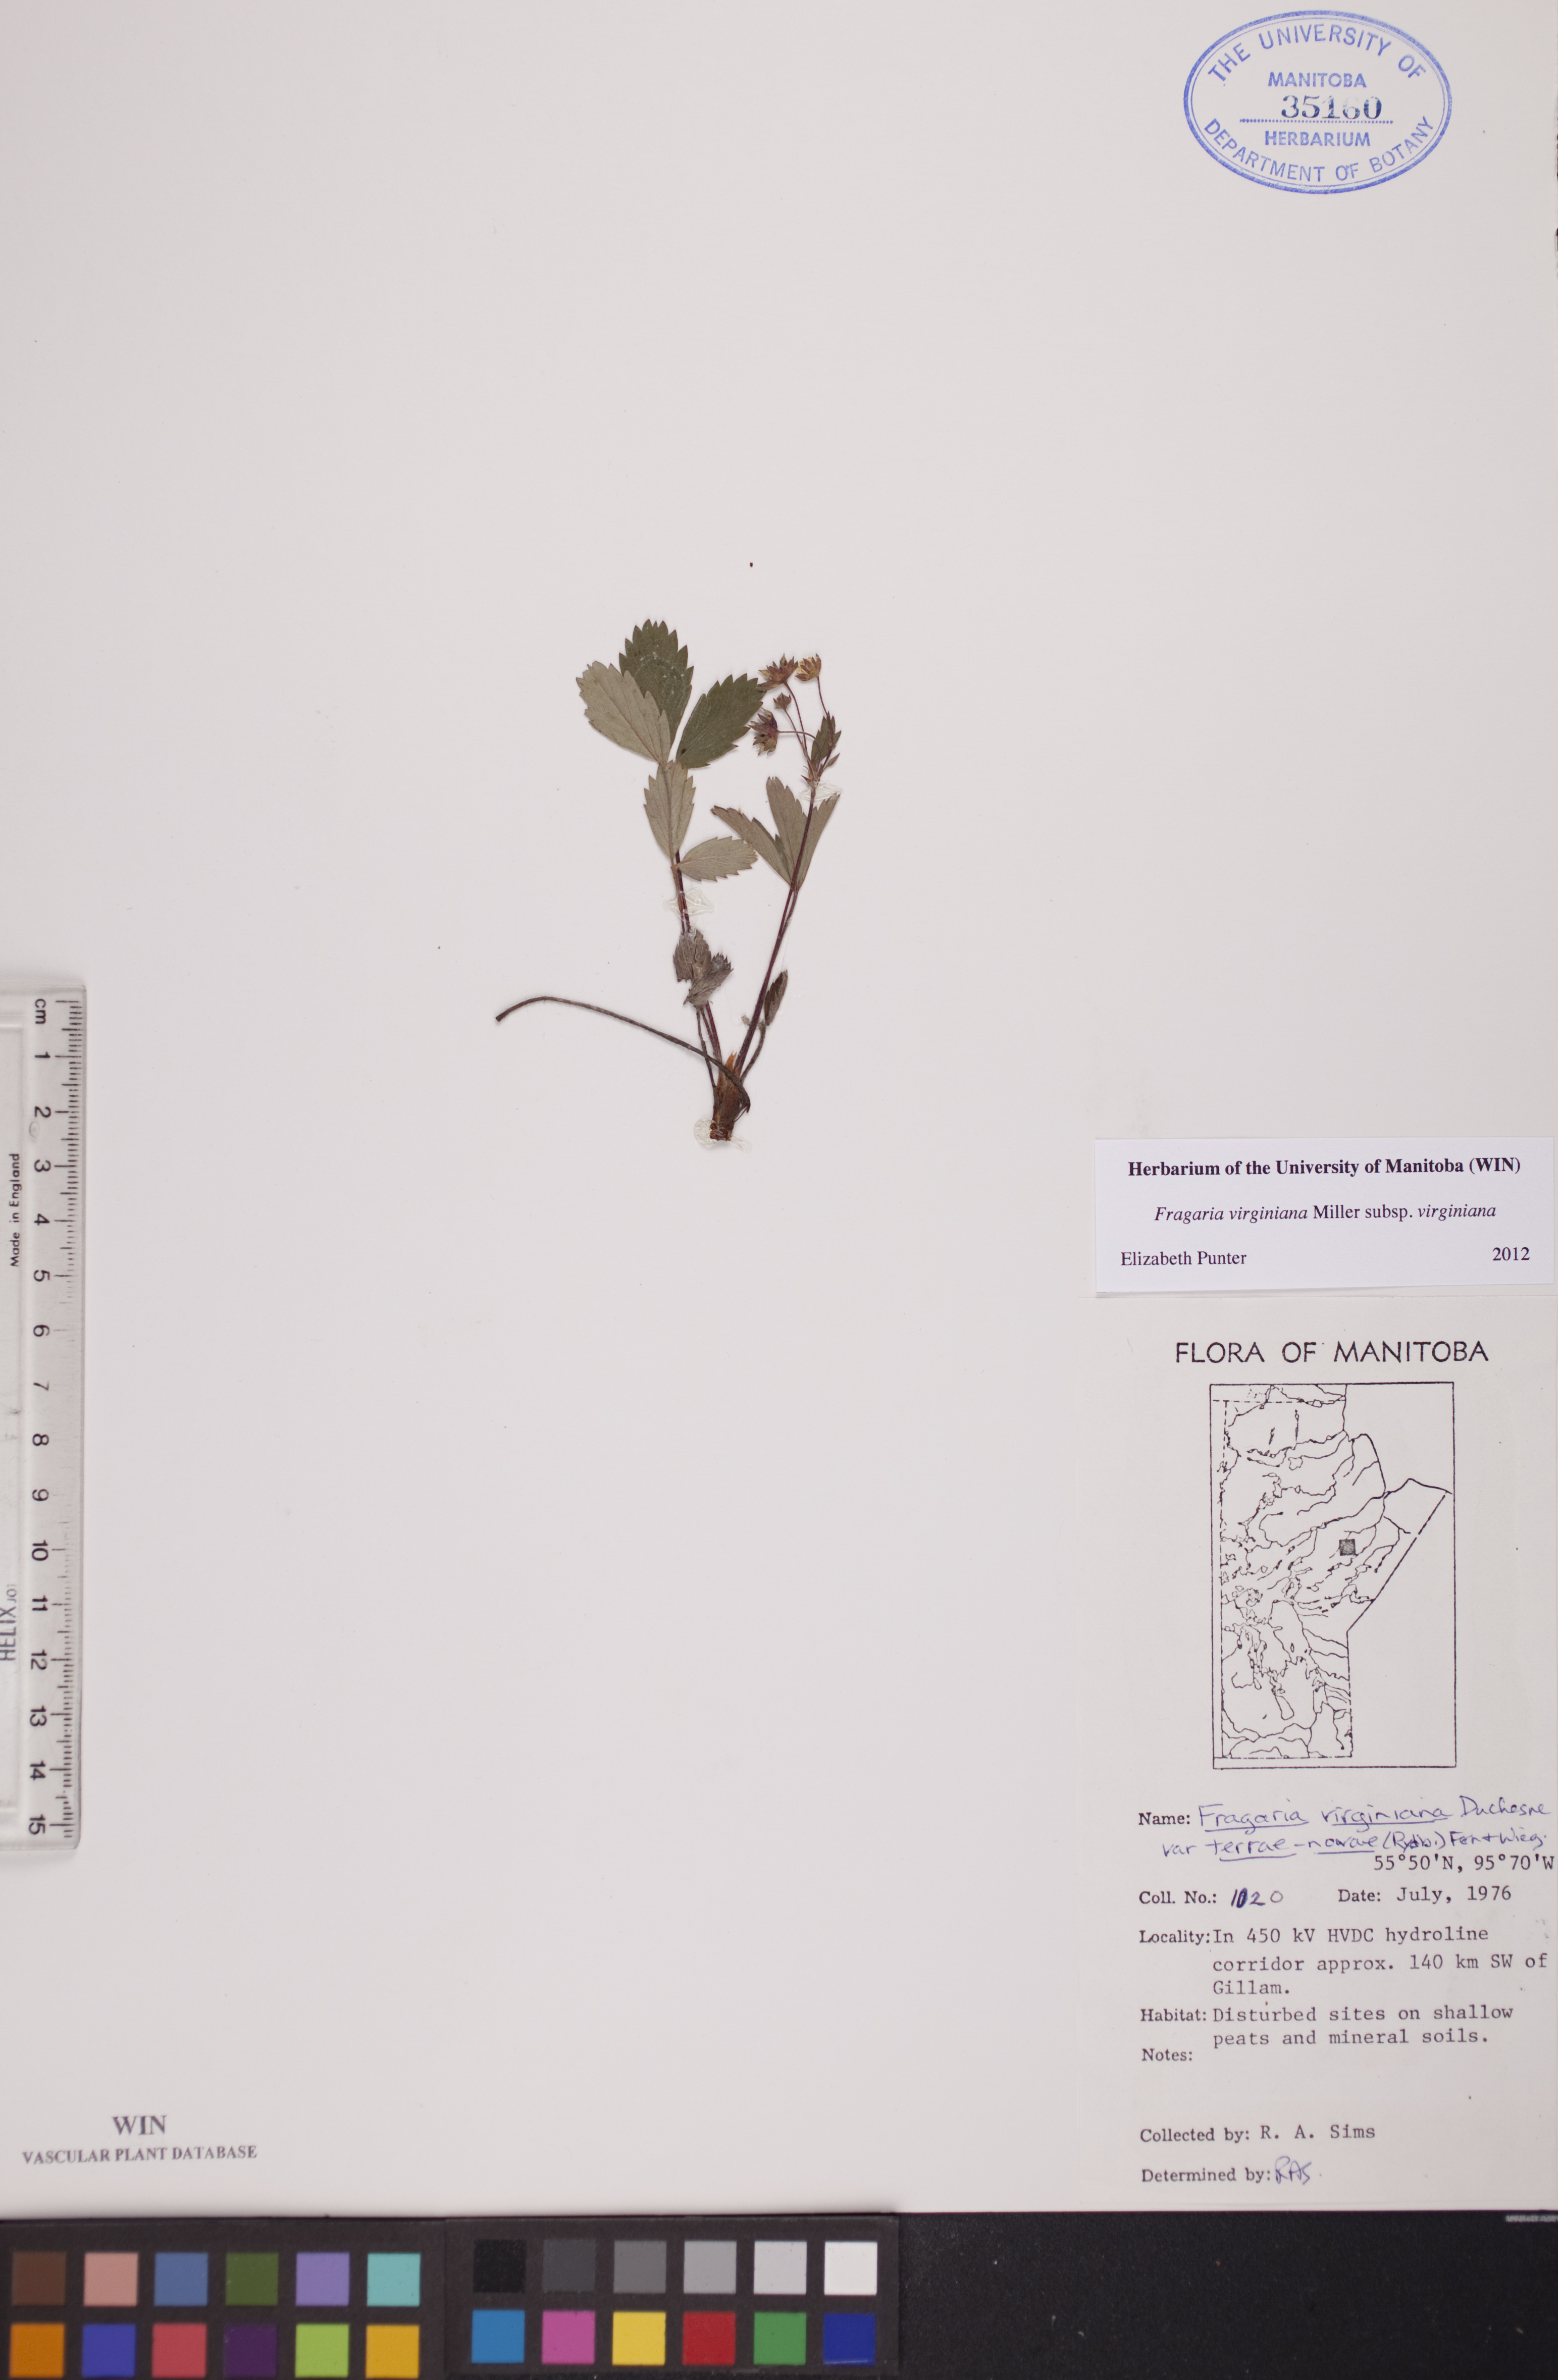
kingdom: Plantae
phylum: Tracheophyta
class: Magnoliopsida
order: Rosales
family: Rosaceae
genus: Fragaria
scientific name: Fragaria virginiana
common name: Thickleaved wild strawberry
